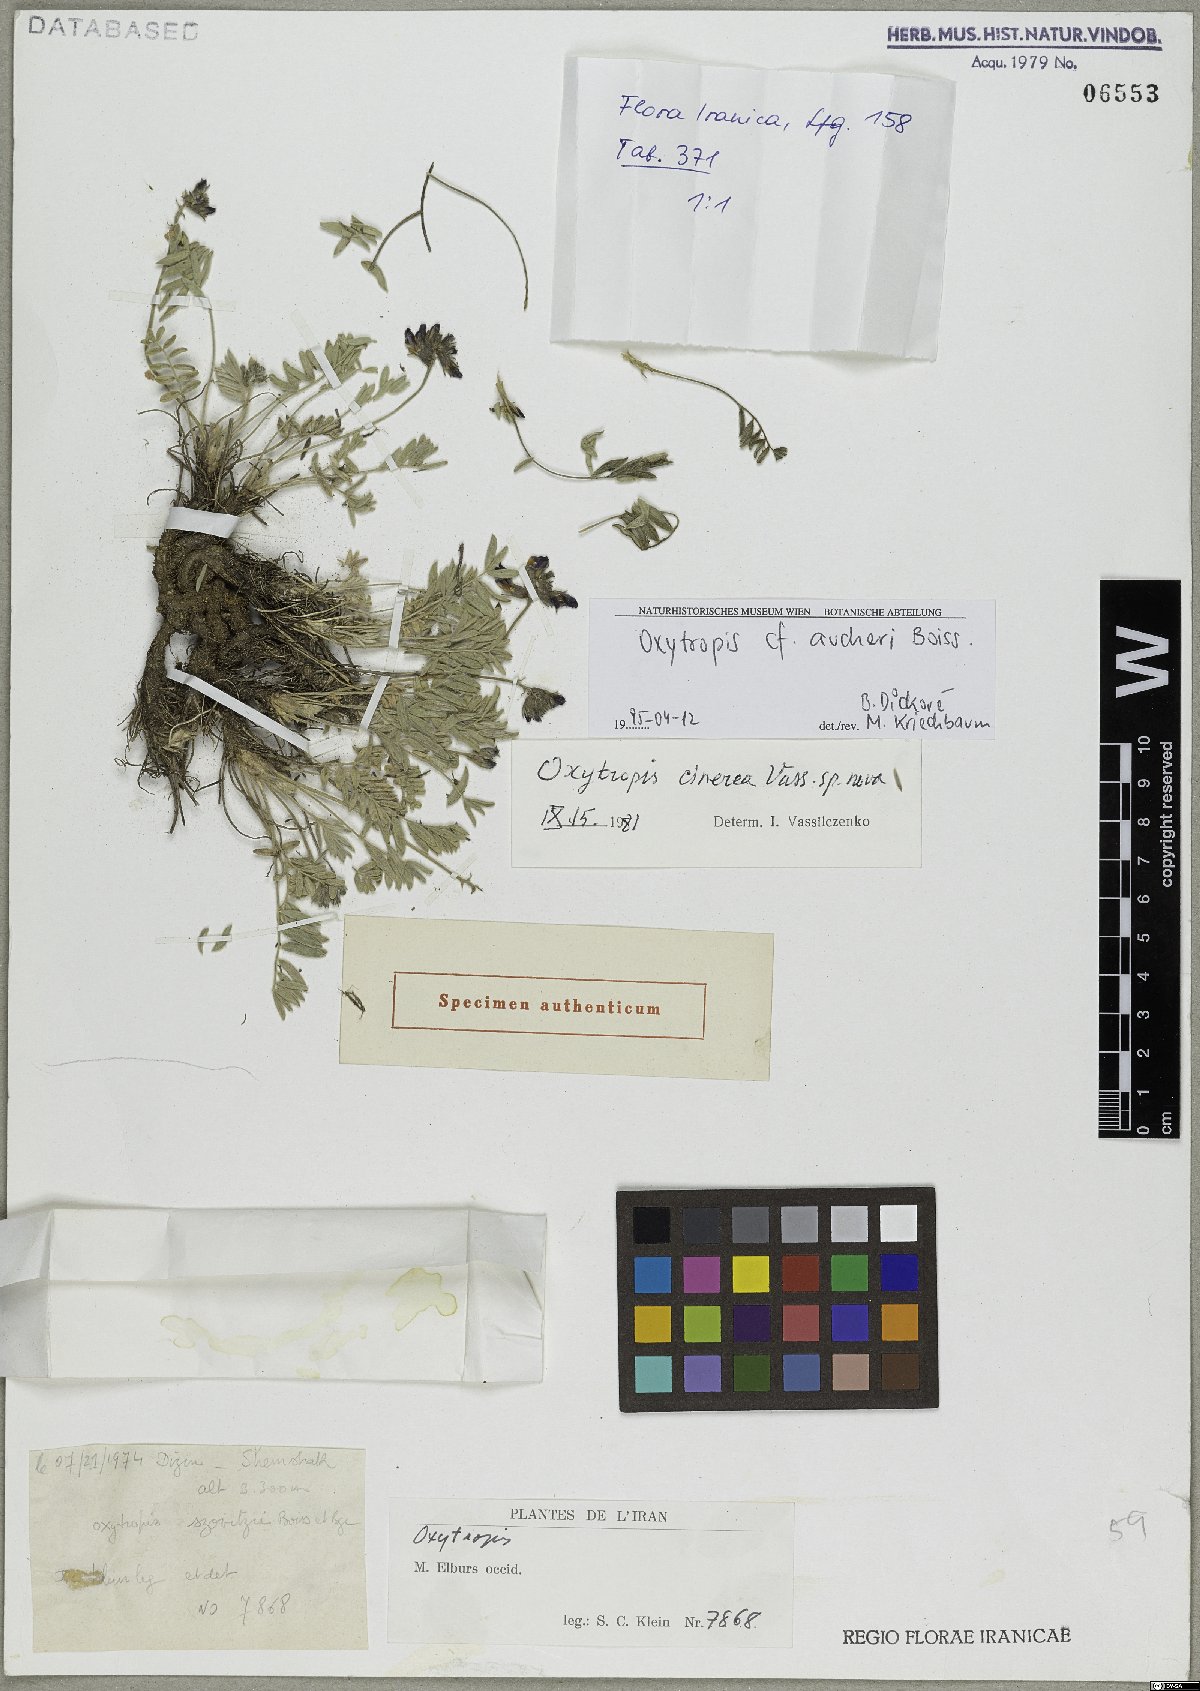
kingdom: Plantae
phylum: Tracheophyta
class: Magnoliopsida
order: Fabales
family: Fabaceae
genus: Oxytropis
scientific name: Oxytropis aucheri
